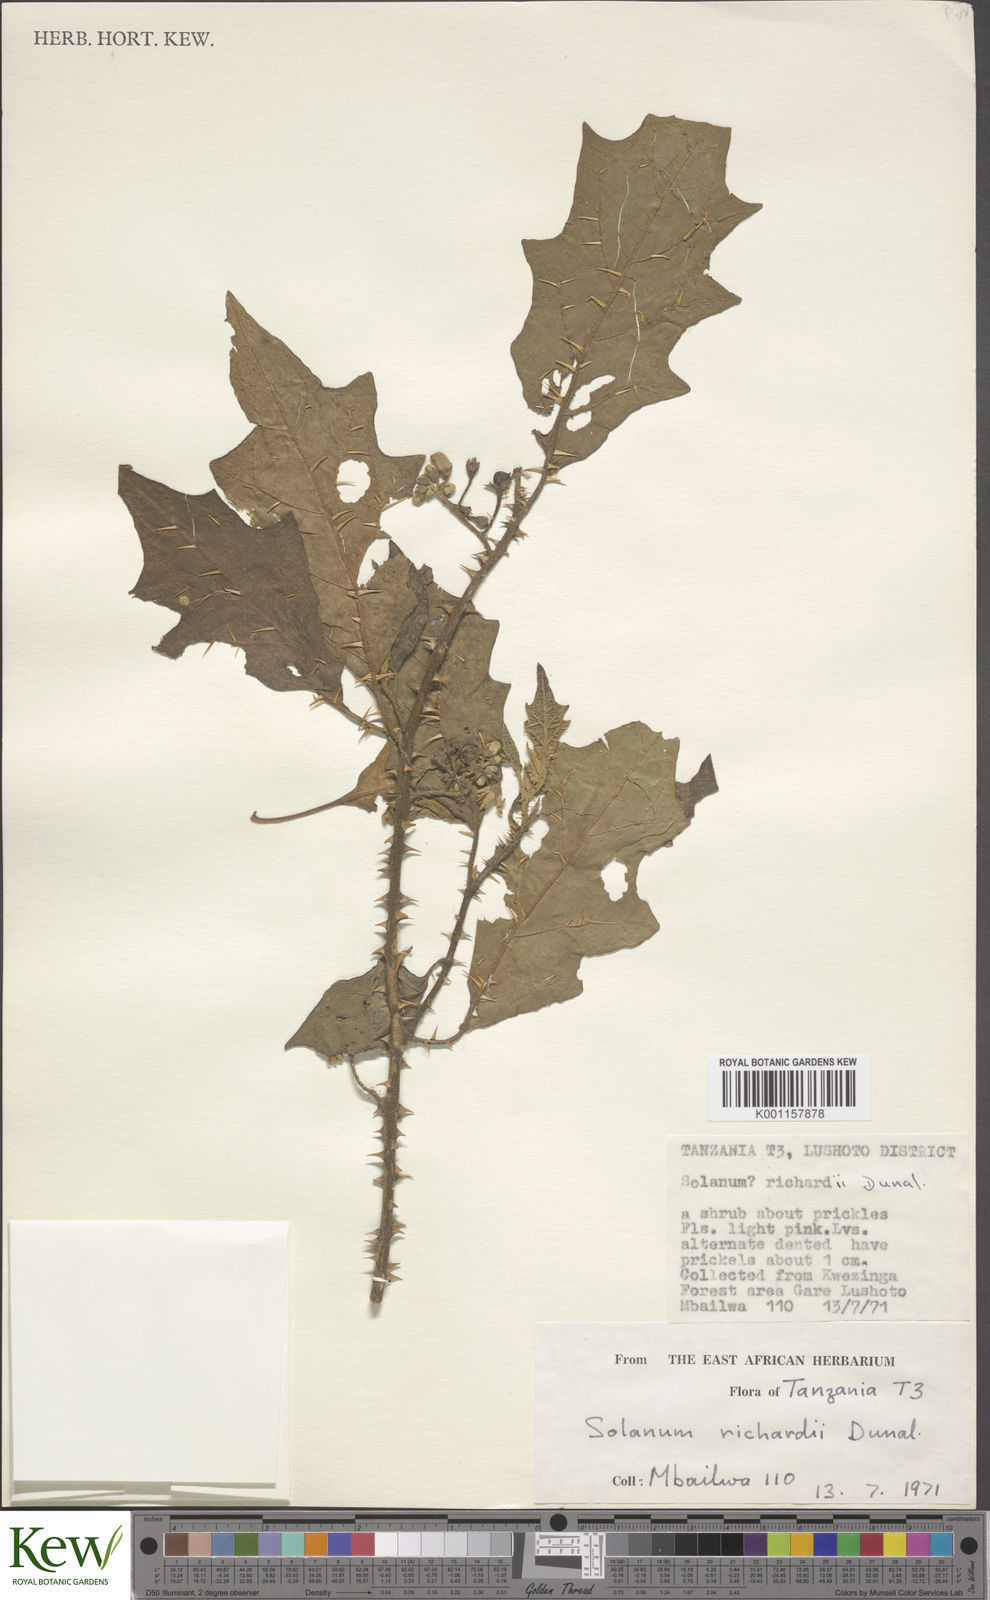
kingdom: Plantae
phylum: Tracheophyta
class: Magnoliopsida
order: Solanales
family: Solanaceae
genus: Solanum
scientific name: Solanum richardii
